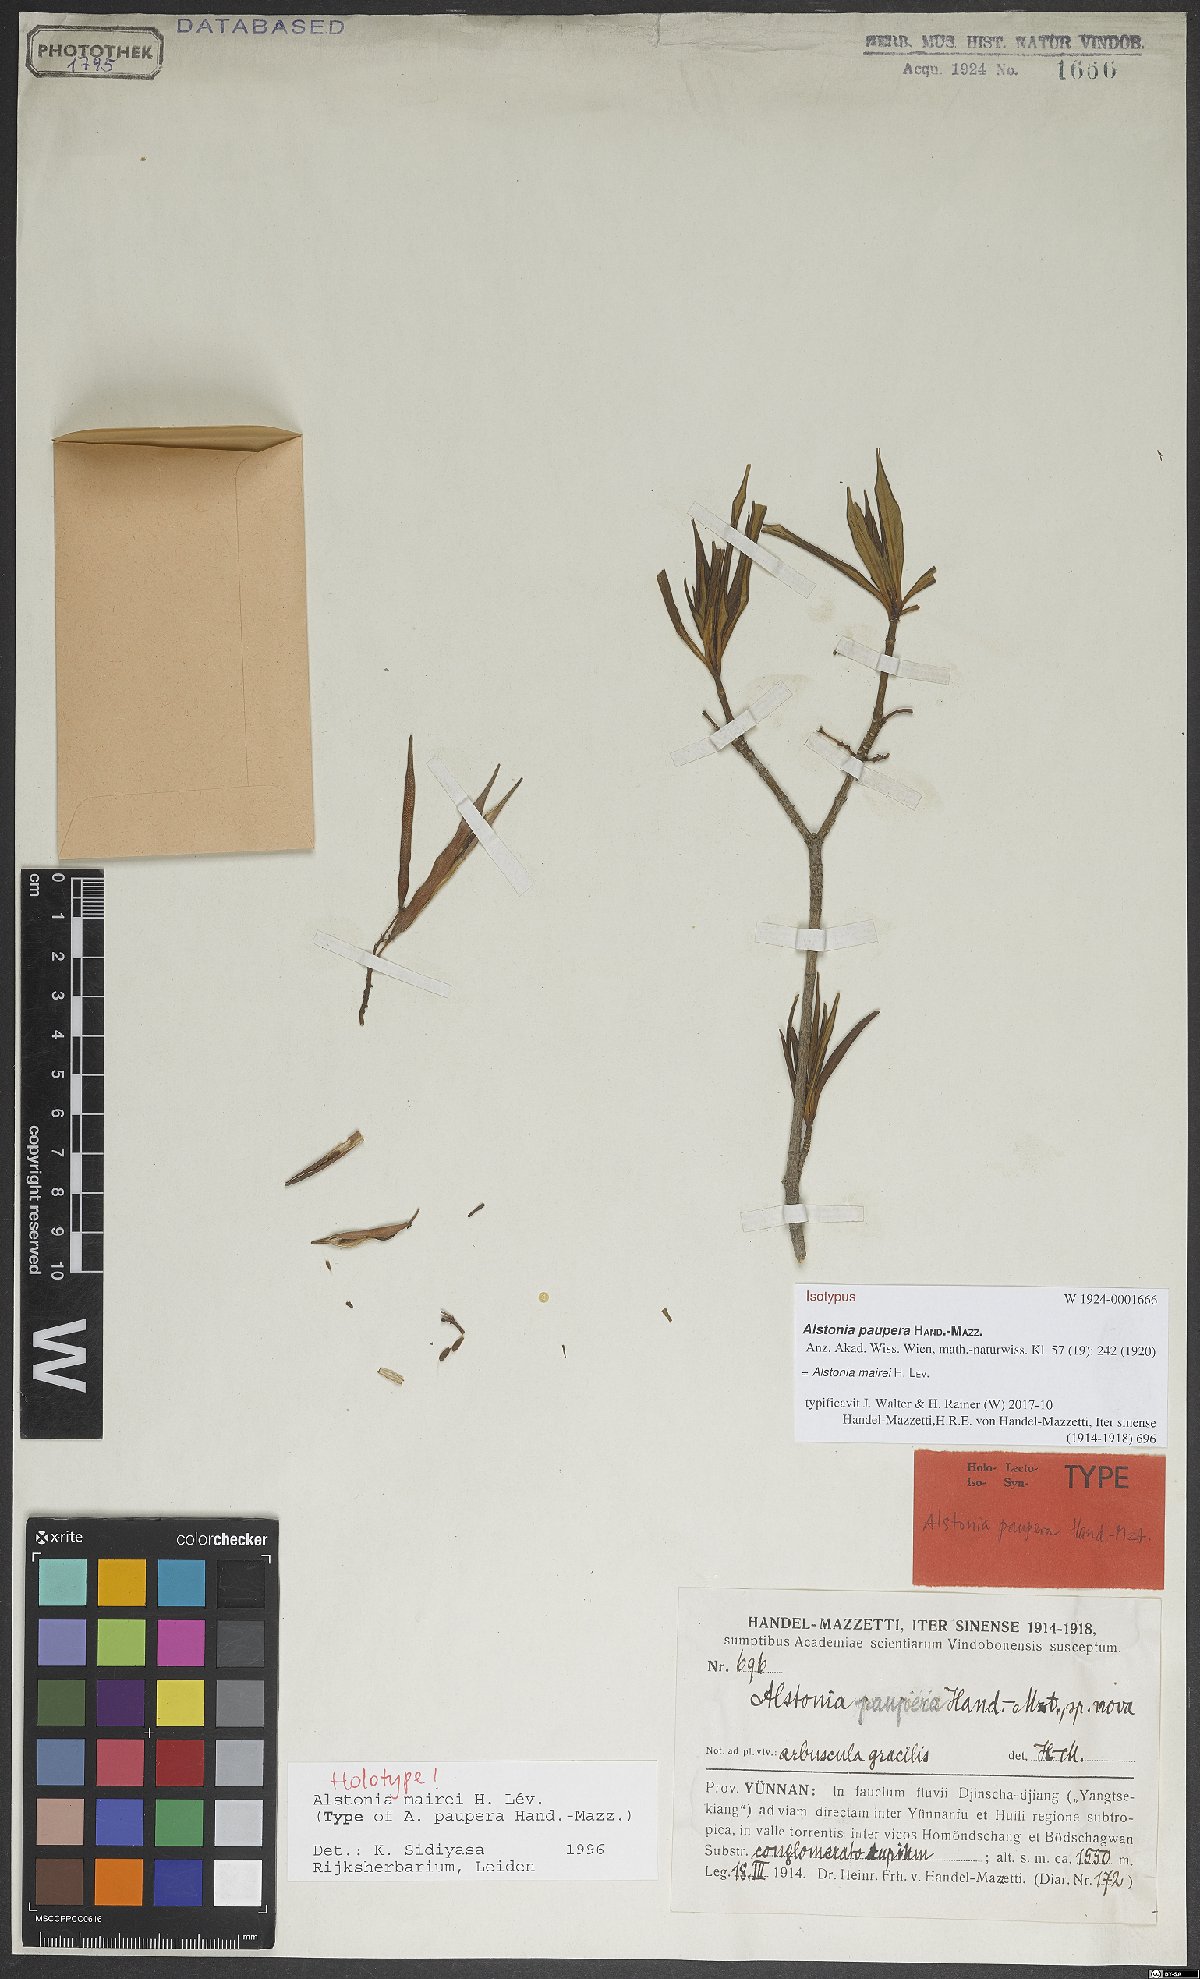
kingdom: Plantae
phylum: Tracheophyta
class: Magnoliopsida
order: Gentianales
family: Apocynaceae
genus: Alstonia
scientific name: Alstonia mairei
